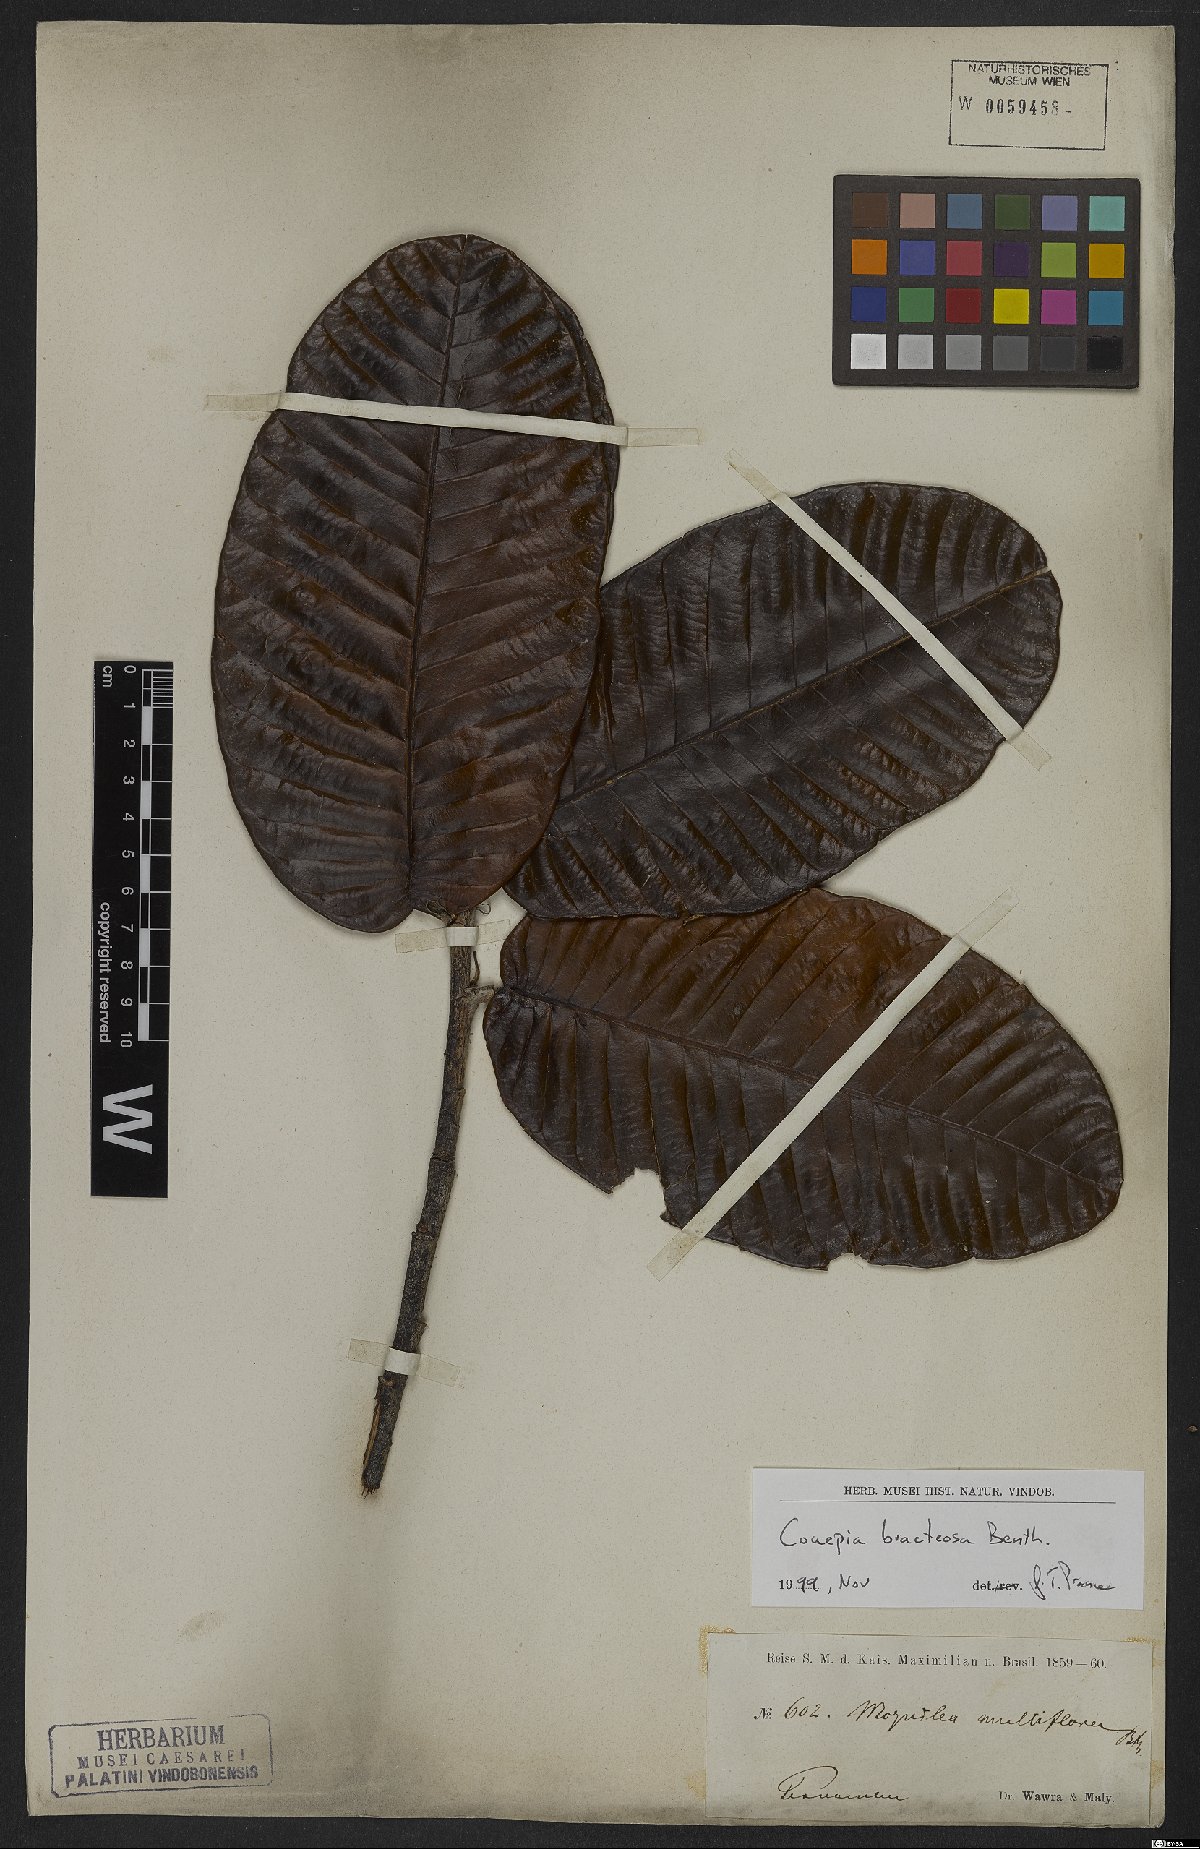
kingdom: Plantae
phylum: Tracheophyta
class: Magnoliopsida
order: Malpighiales
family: Chrysobalanaceae
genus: Couepia
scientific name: Couepia bracteosa
